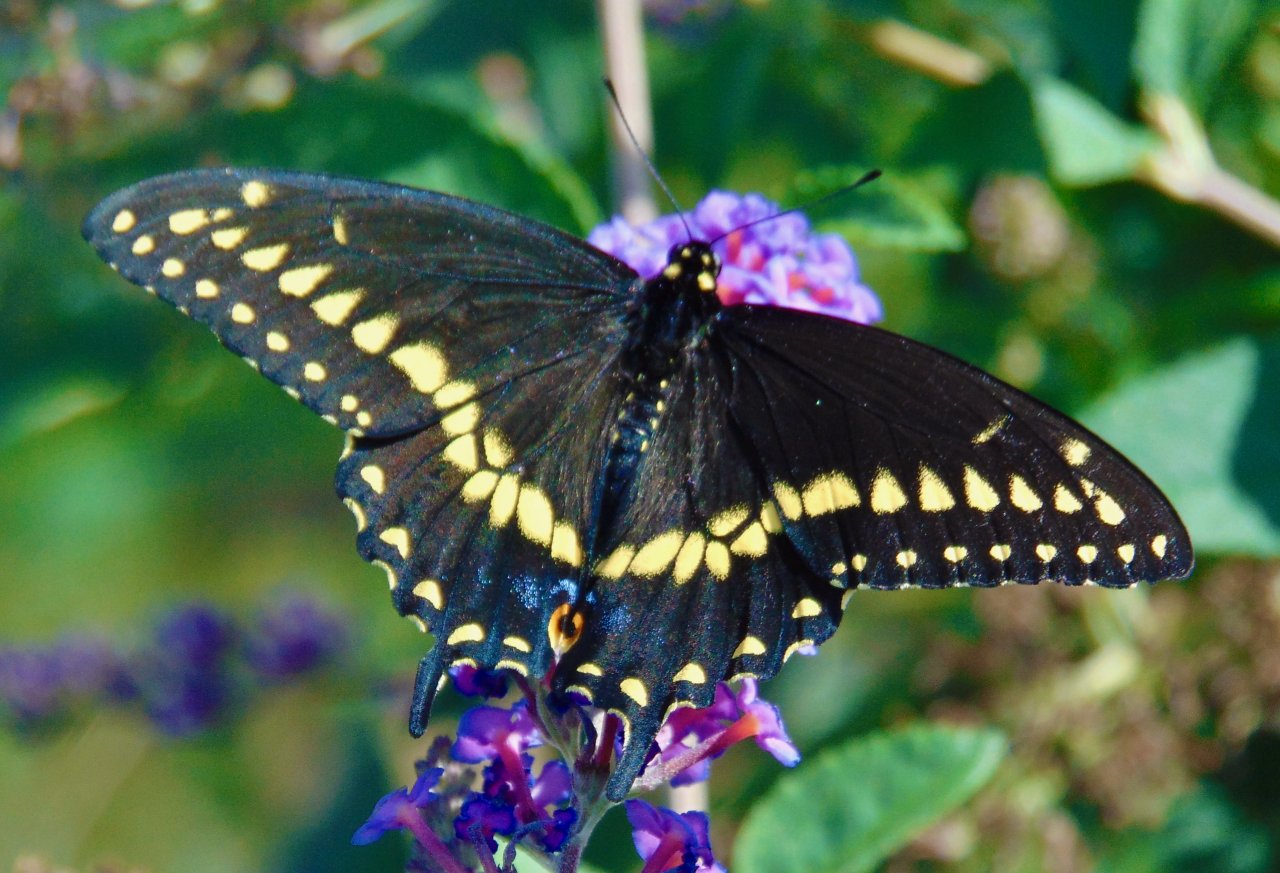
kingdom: Animalia
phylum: Arthropoda
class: Insecta
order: Lepidoptera
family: Papilionidae
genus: Papilio
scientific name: Papilio polyxenes
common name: Black Swallowtail
